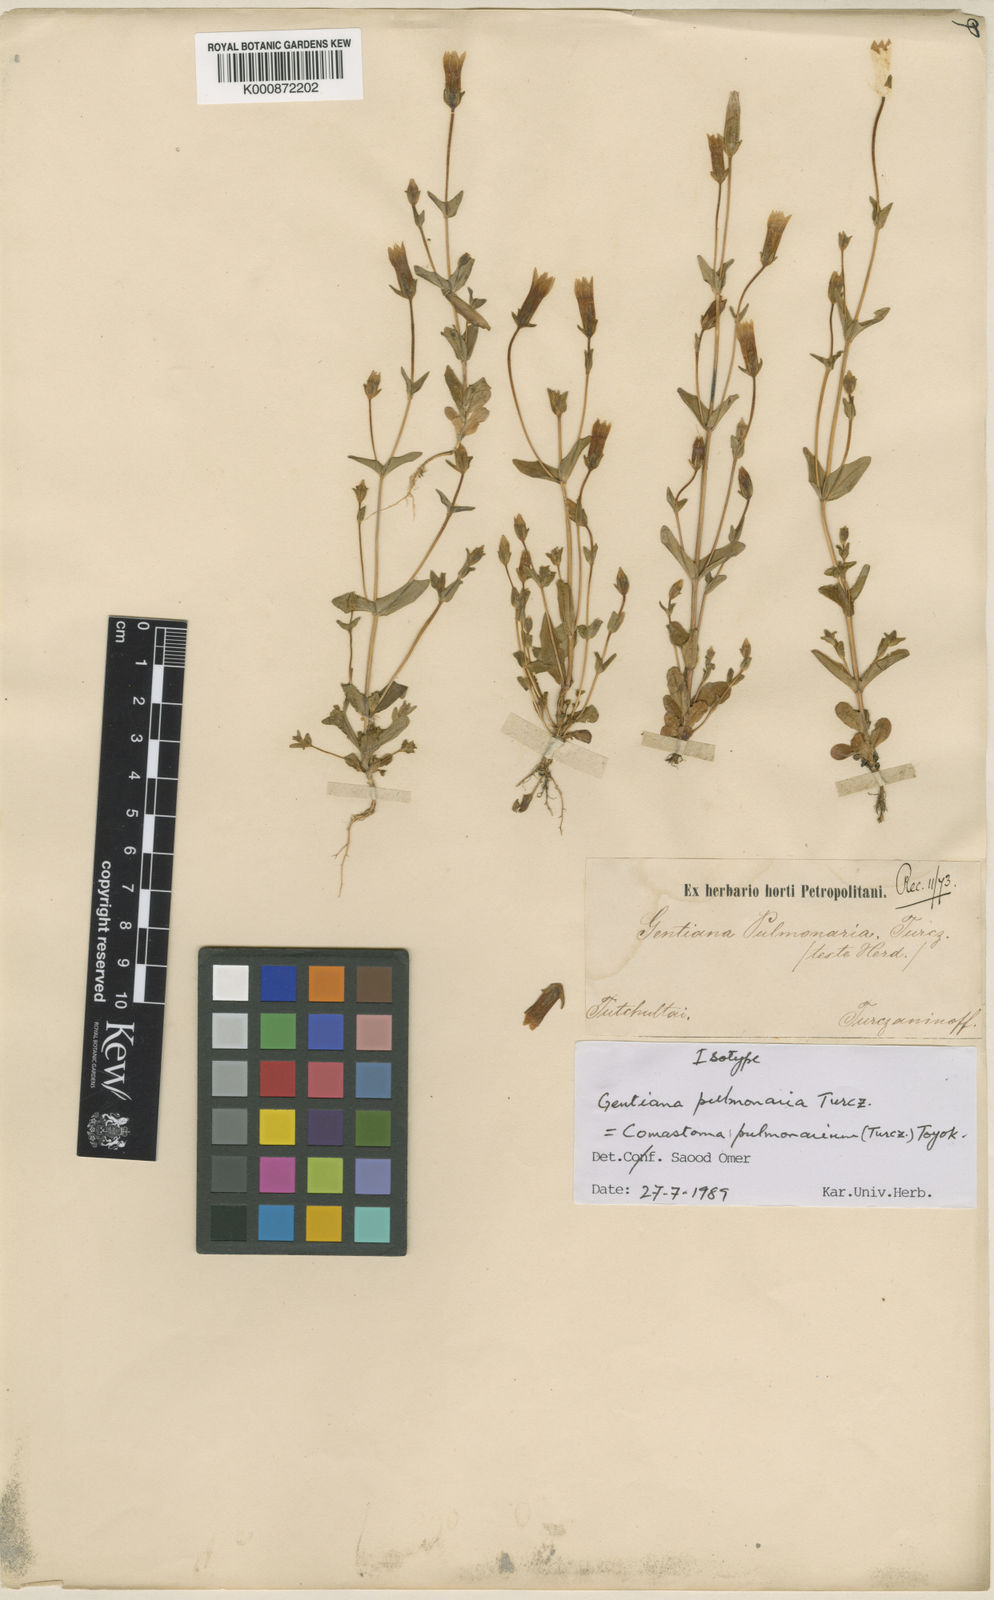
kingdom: Plantae
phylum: Tracheophyta
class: Magnoliopsida
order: Gentianales
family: Gentianaceae
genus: Gentianella
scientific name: Gentianella
